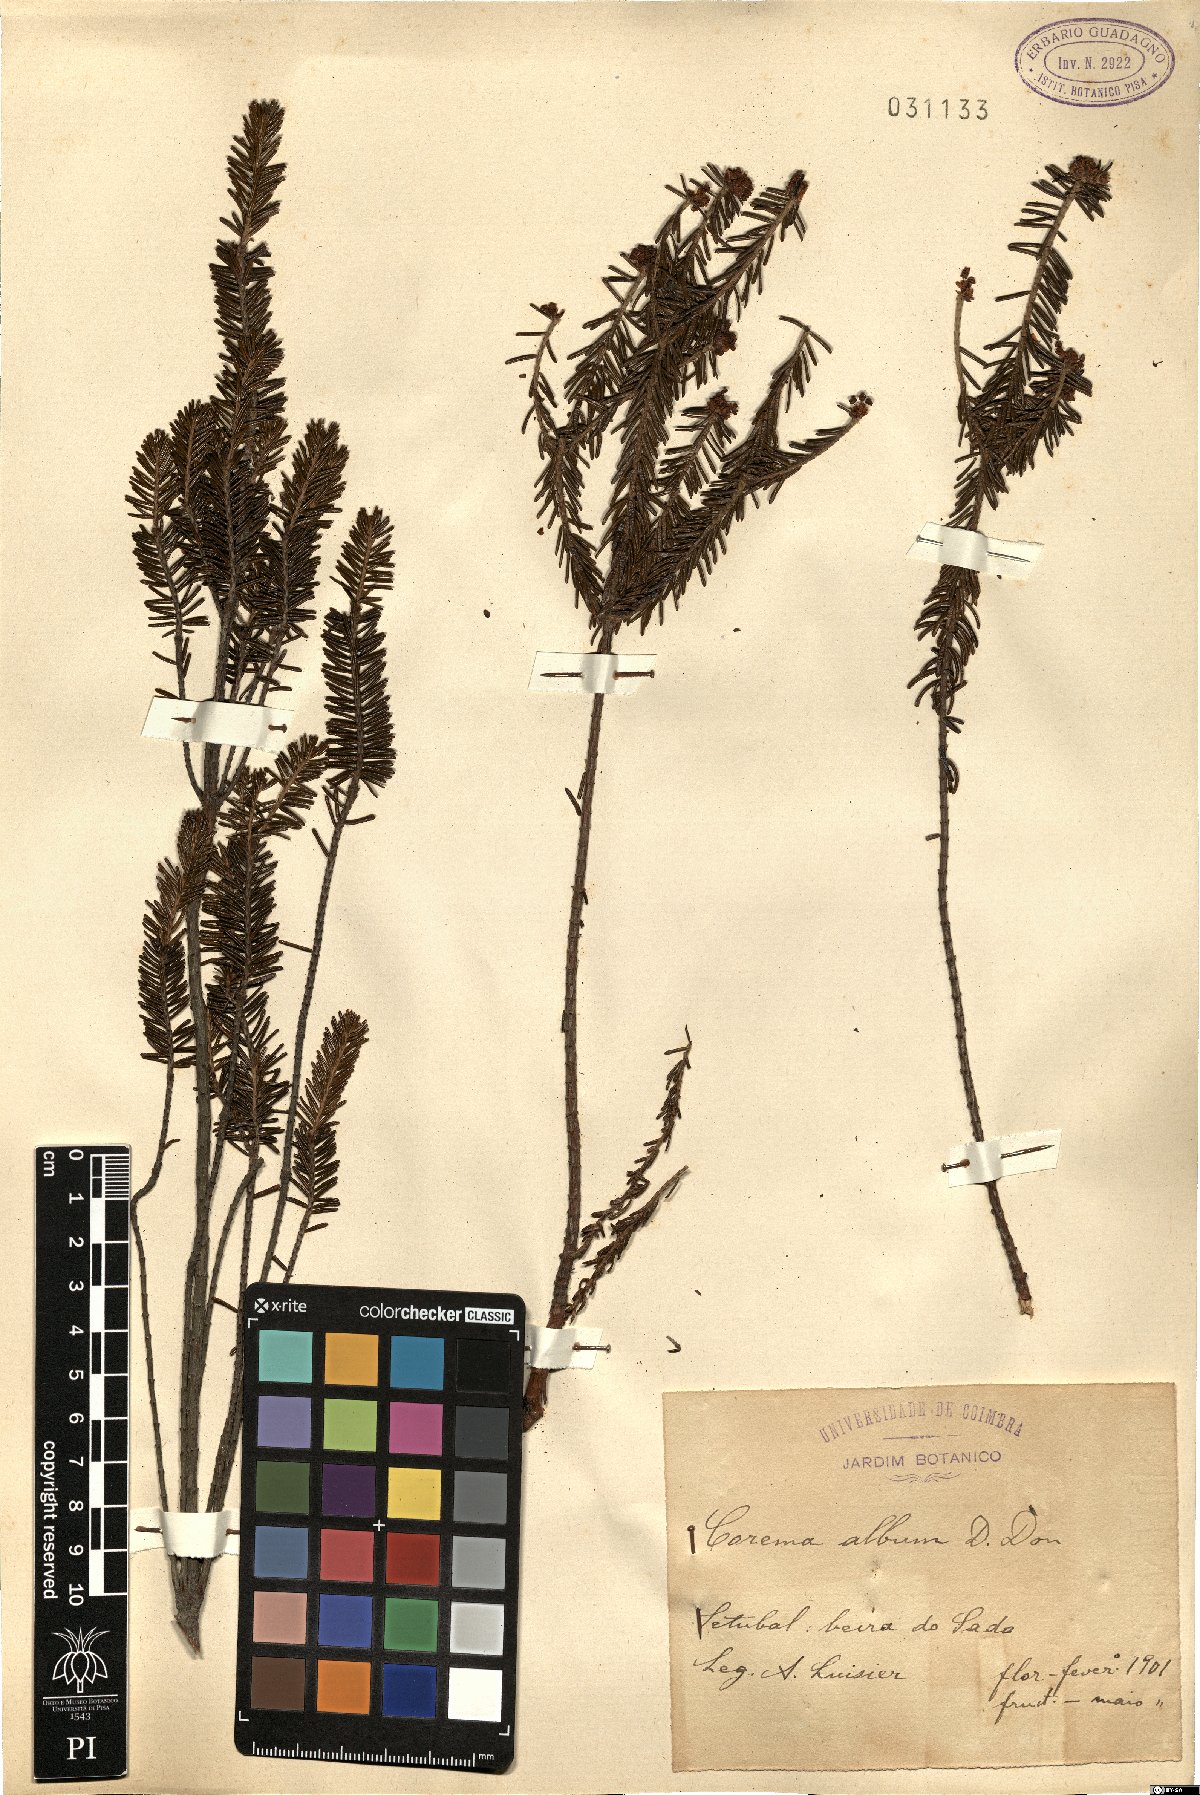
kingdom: Plantae
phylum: Tracheophyta
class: Magnoliopsida
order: Ericales
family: Ericaceae
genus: Corema
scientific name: Corema album
